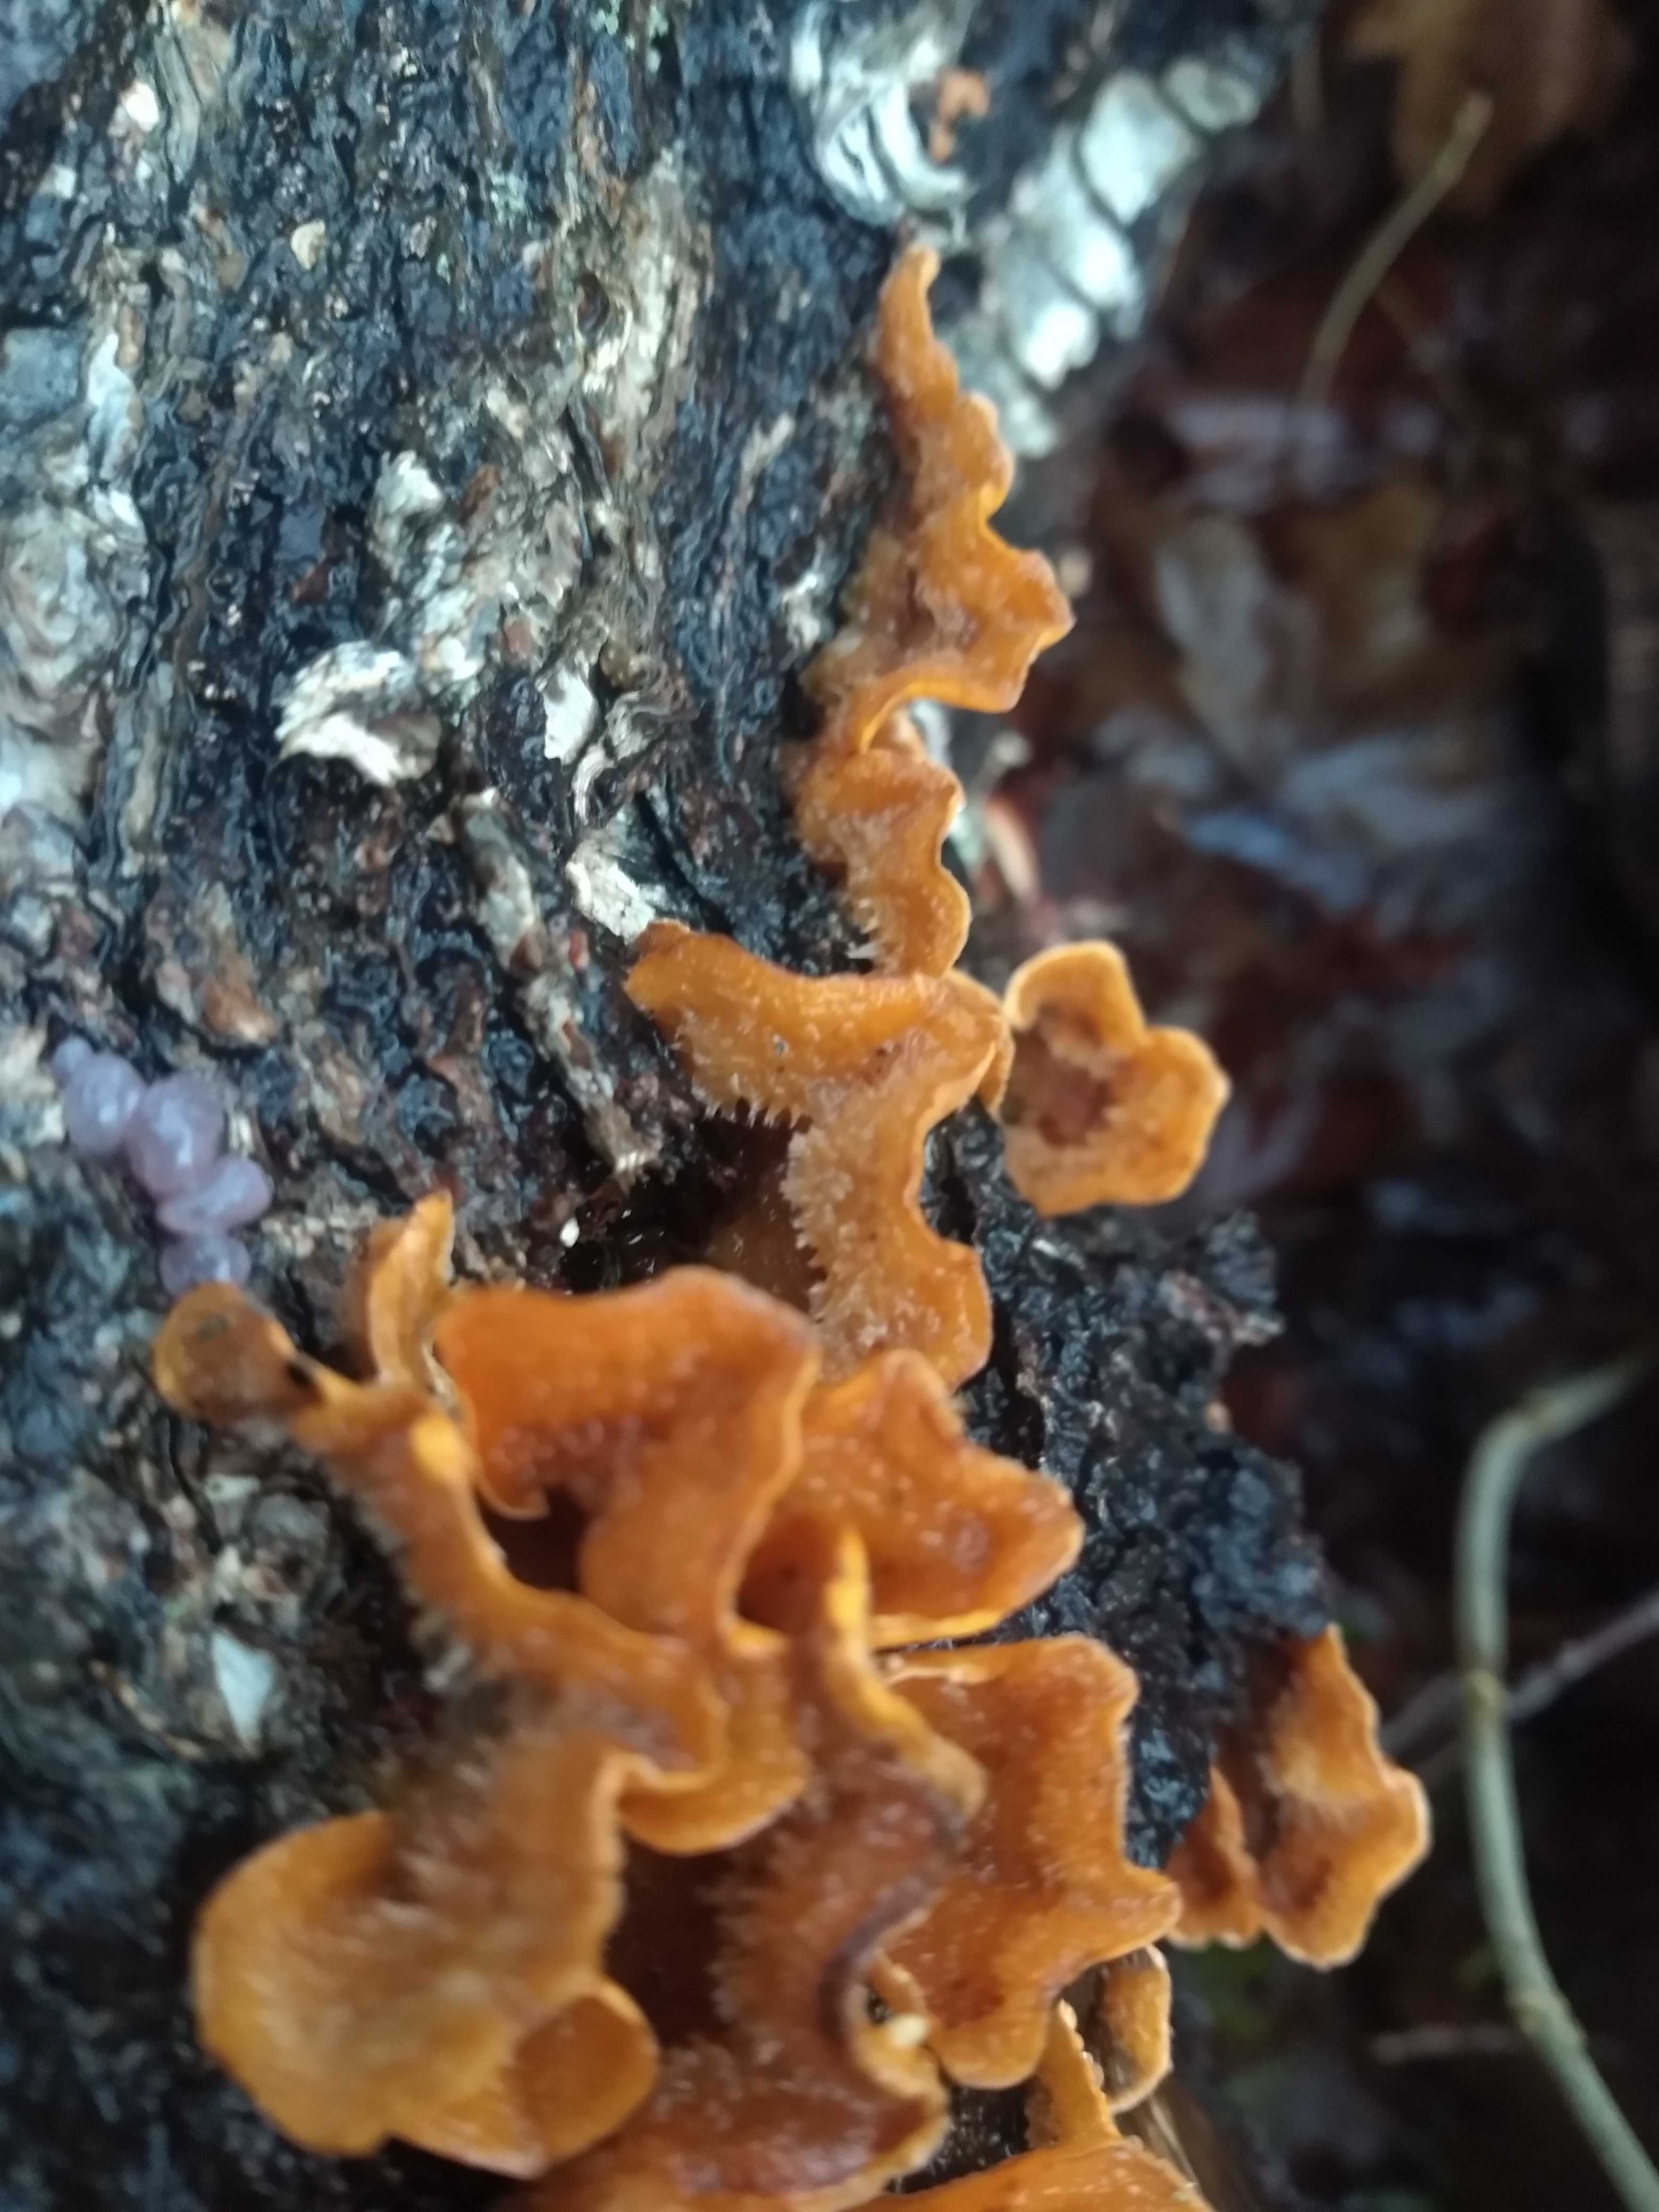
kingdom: Fungi
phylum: Basidiomycota
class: Agaricomycetes
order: Russulales
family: Stereaceae
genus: Stereum
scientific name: Stereum hirsutum
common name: håret lædersvamp
